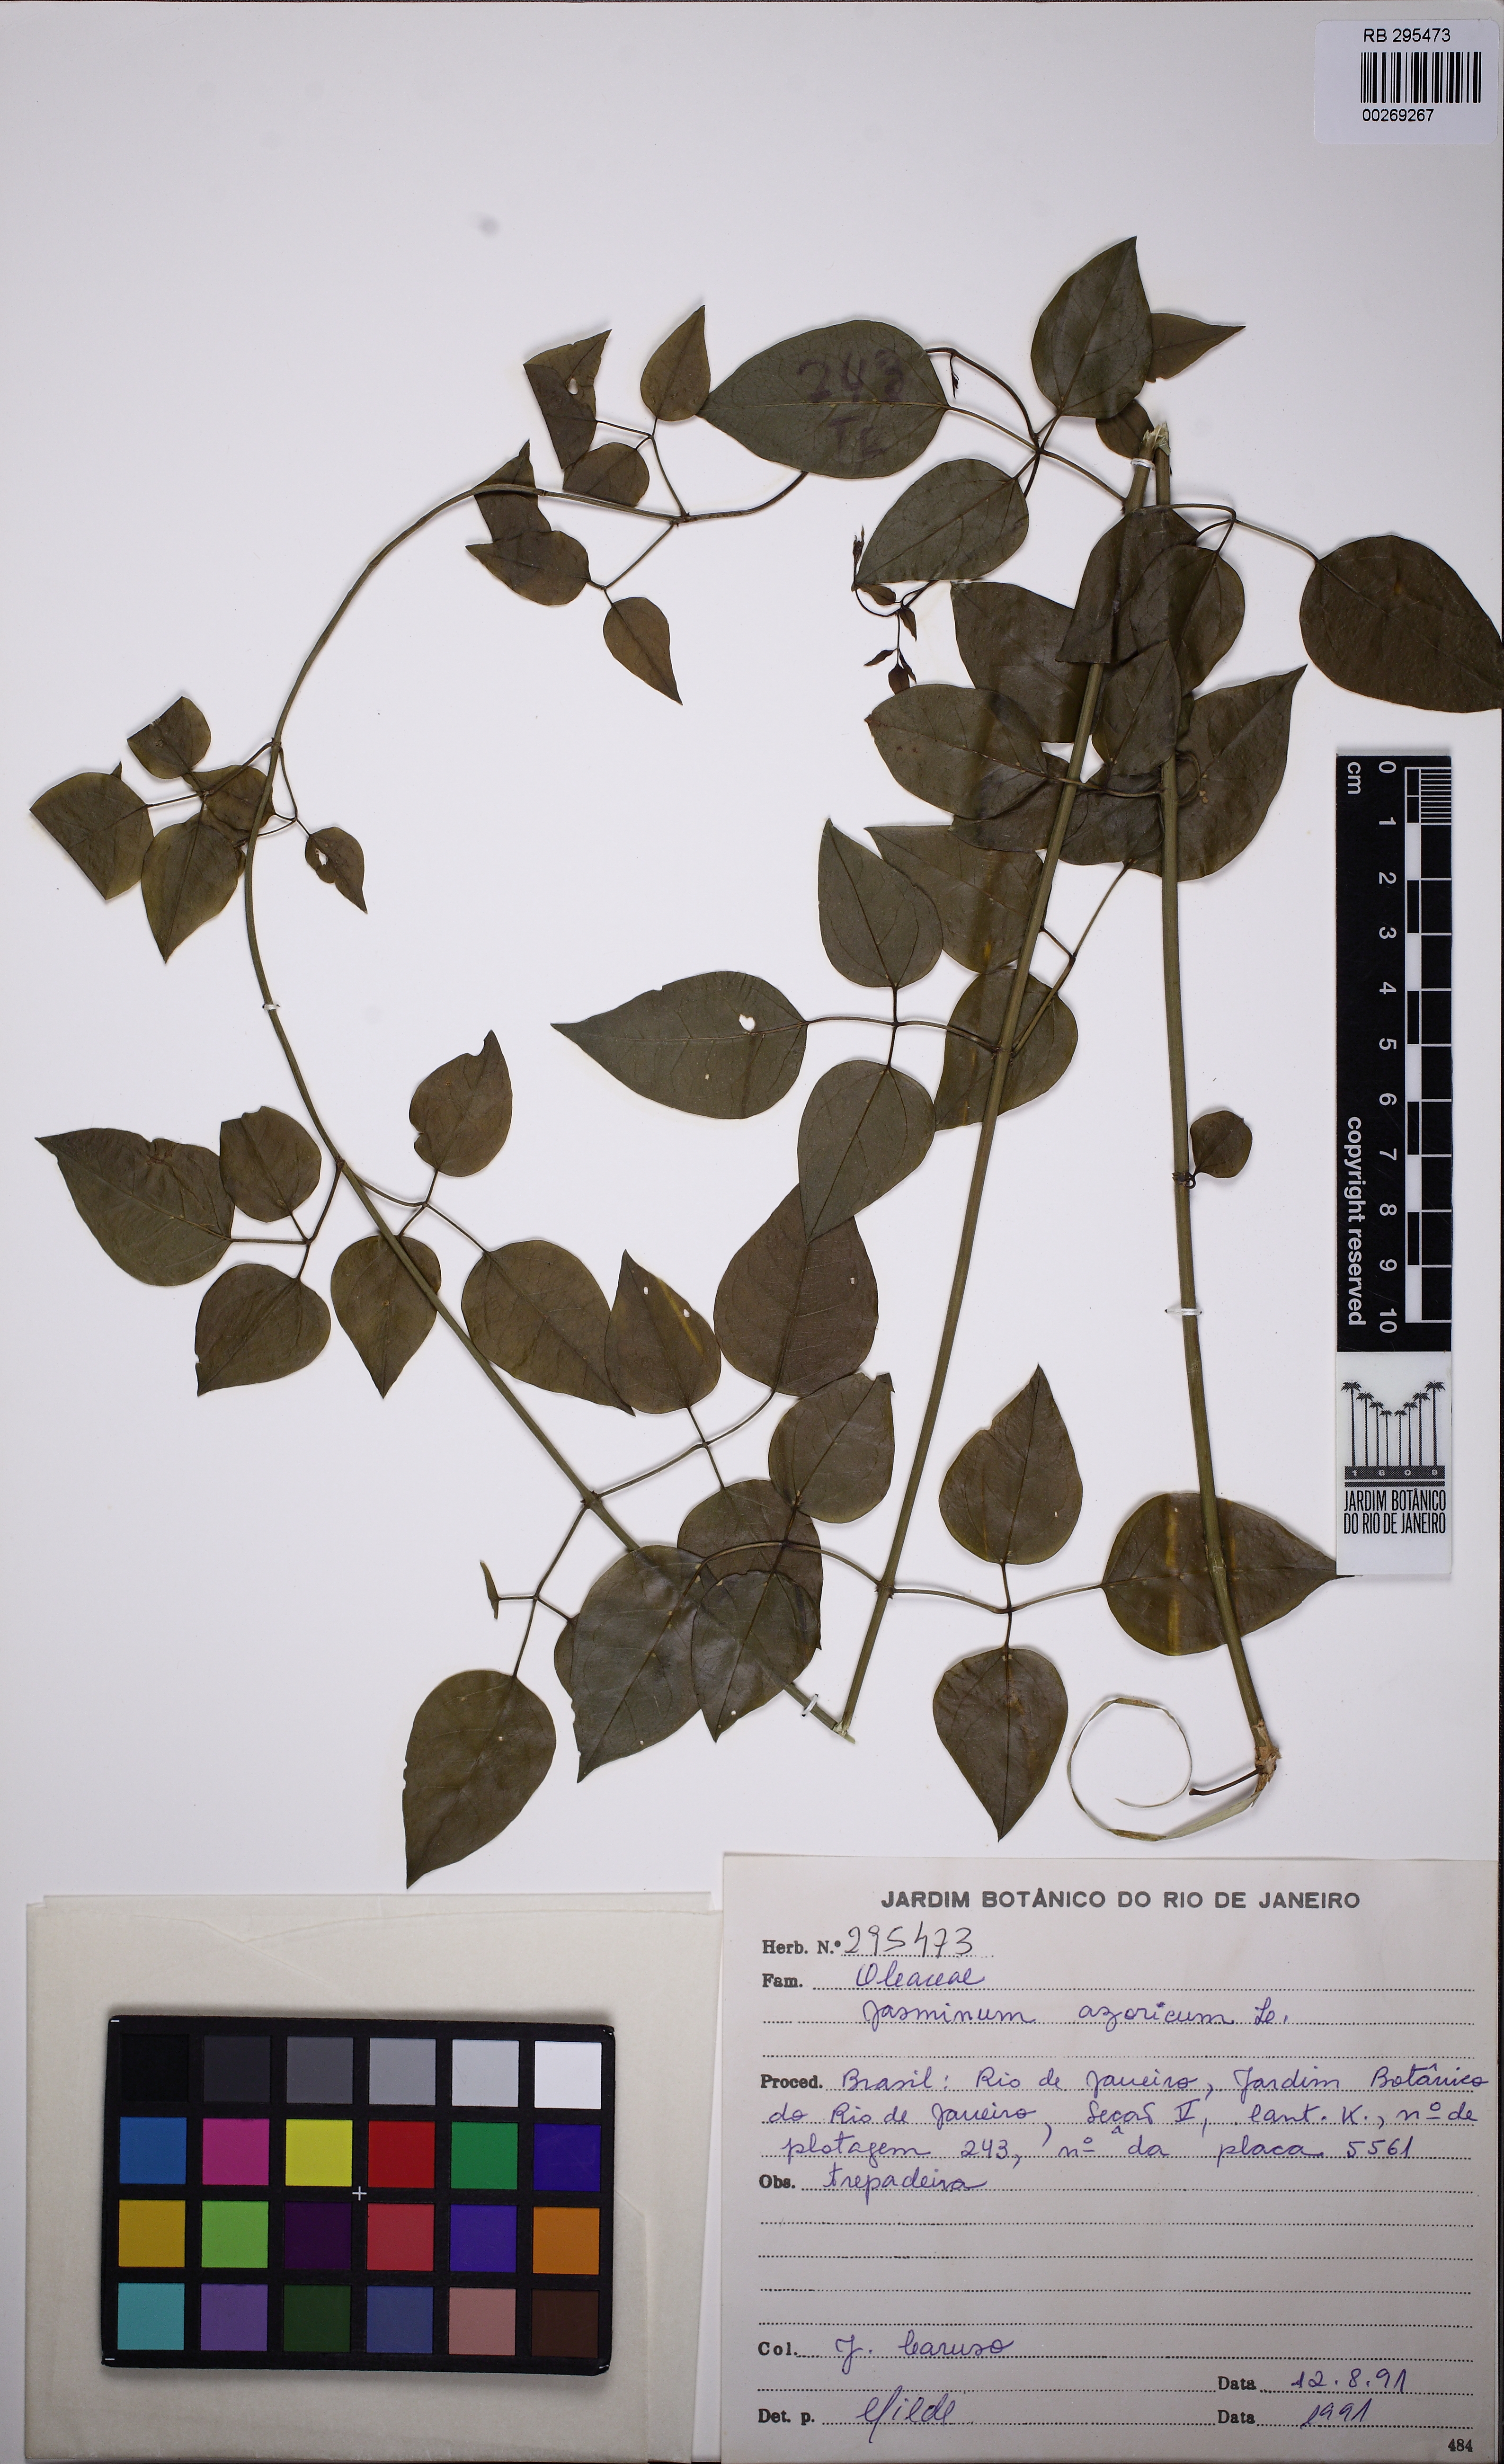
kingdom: Plantae
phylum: Tracheophyta
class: Magnoliopsida
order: Lamiales
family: Oleaceae
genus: Jasminum
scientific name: Jasminum azoricum
